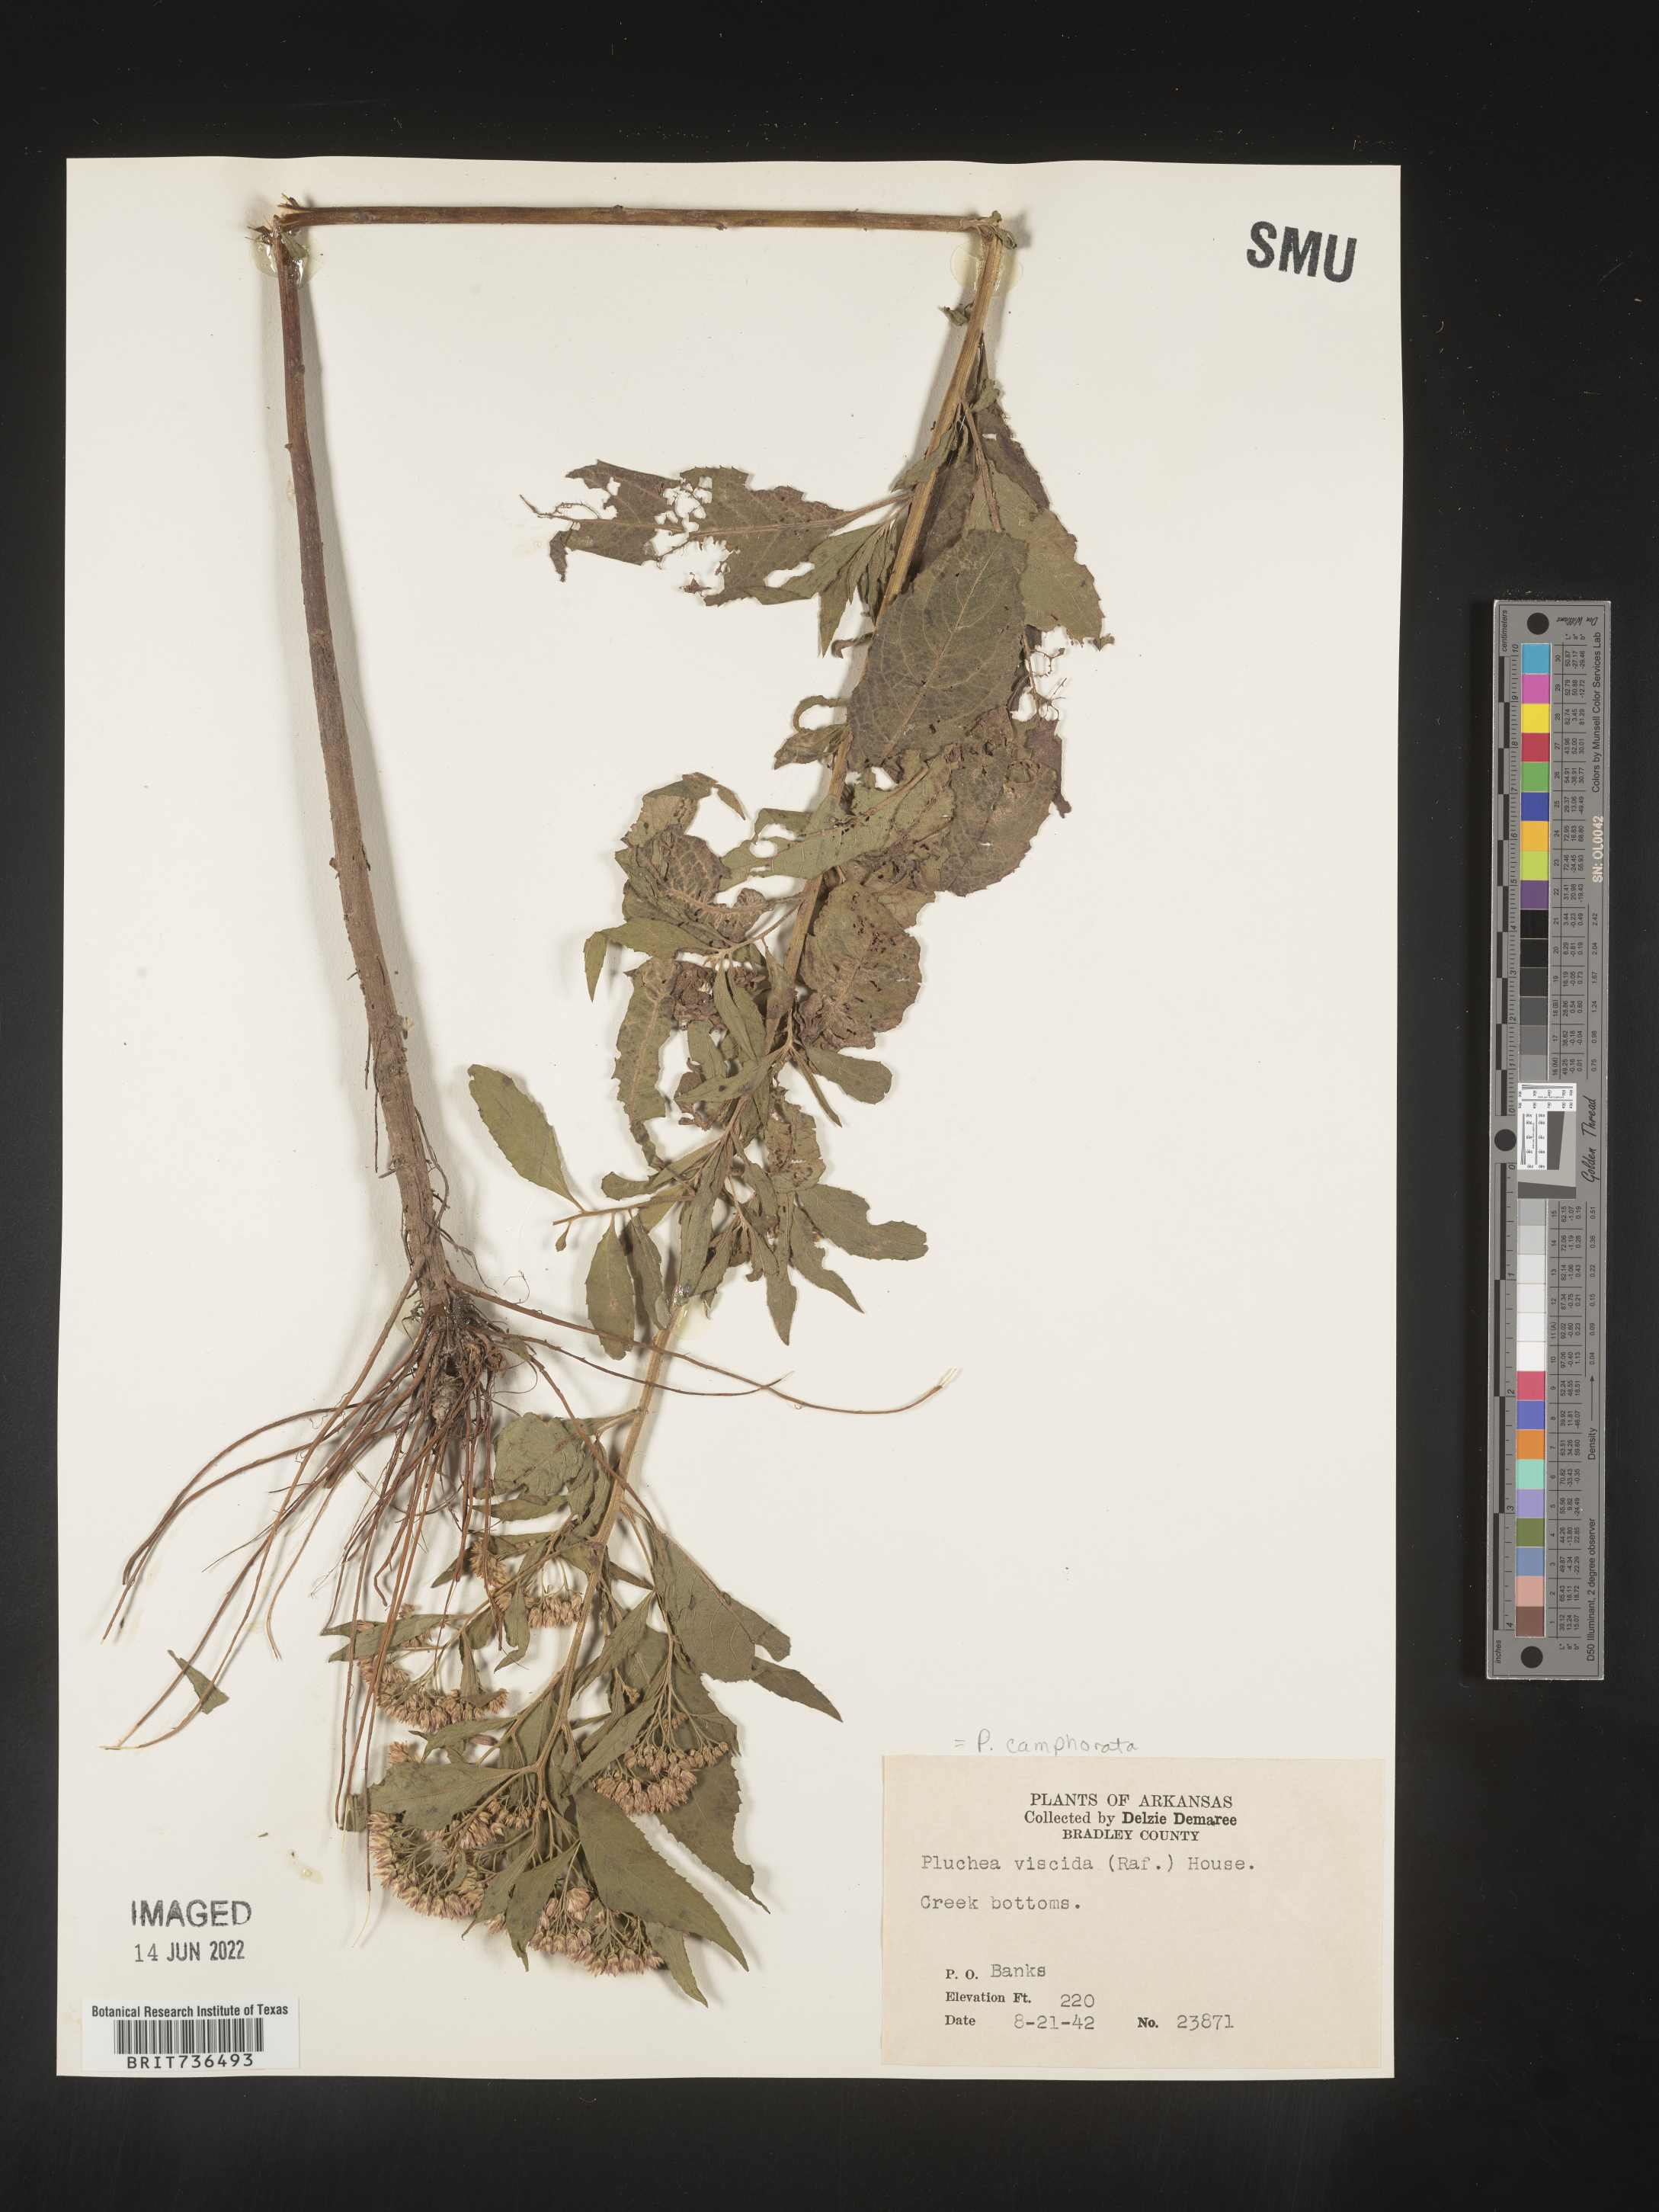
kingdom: Plantae
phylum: Tracheophyta
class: Magnoliopsida
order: Asterales
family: Asteraceae
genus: Pluchea
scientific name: Pluchea camphorata
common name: Camphor pluchea
